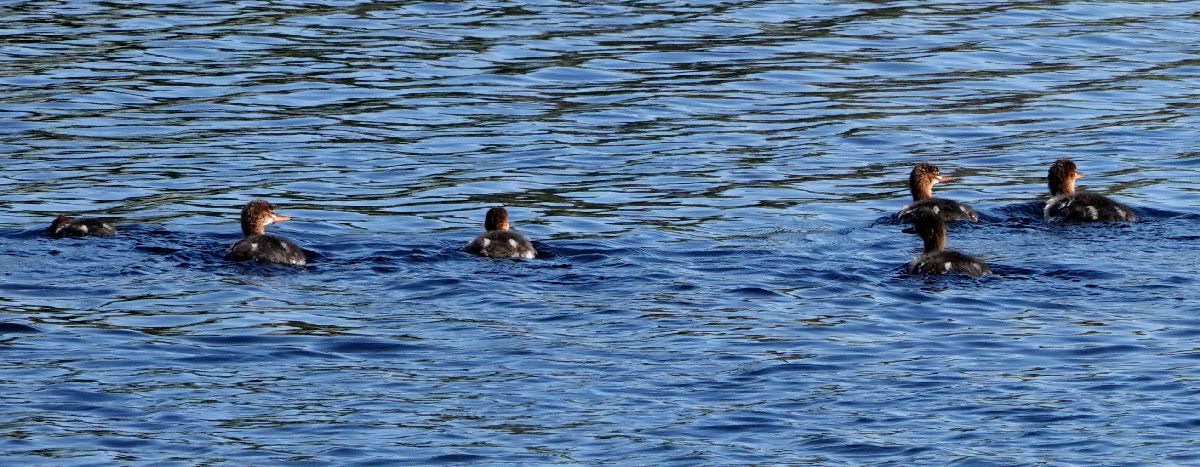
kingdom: Animalia
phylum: Chordata
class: Aves
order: Anseriformes
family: Anatidae
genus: Mergus
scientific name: Mergus serrator
